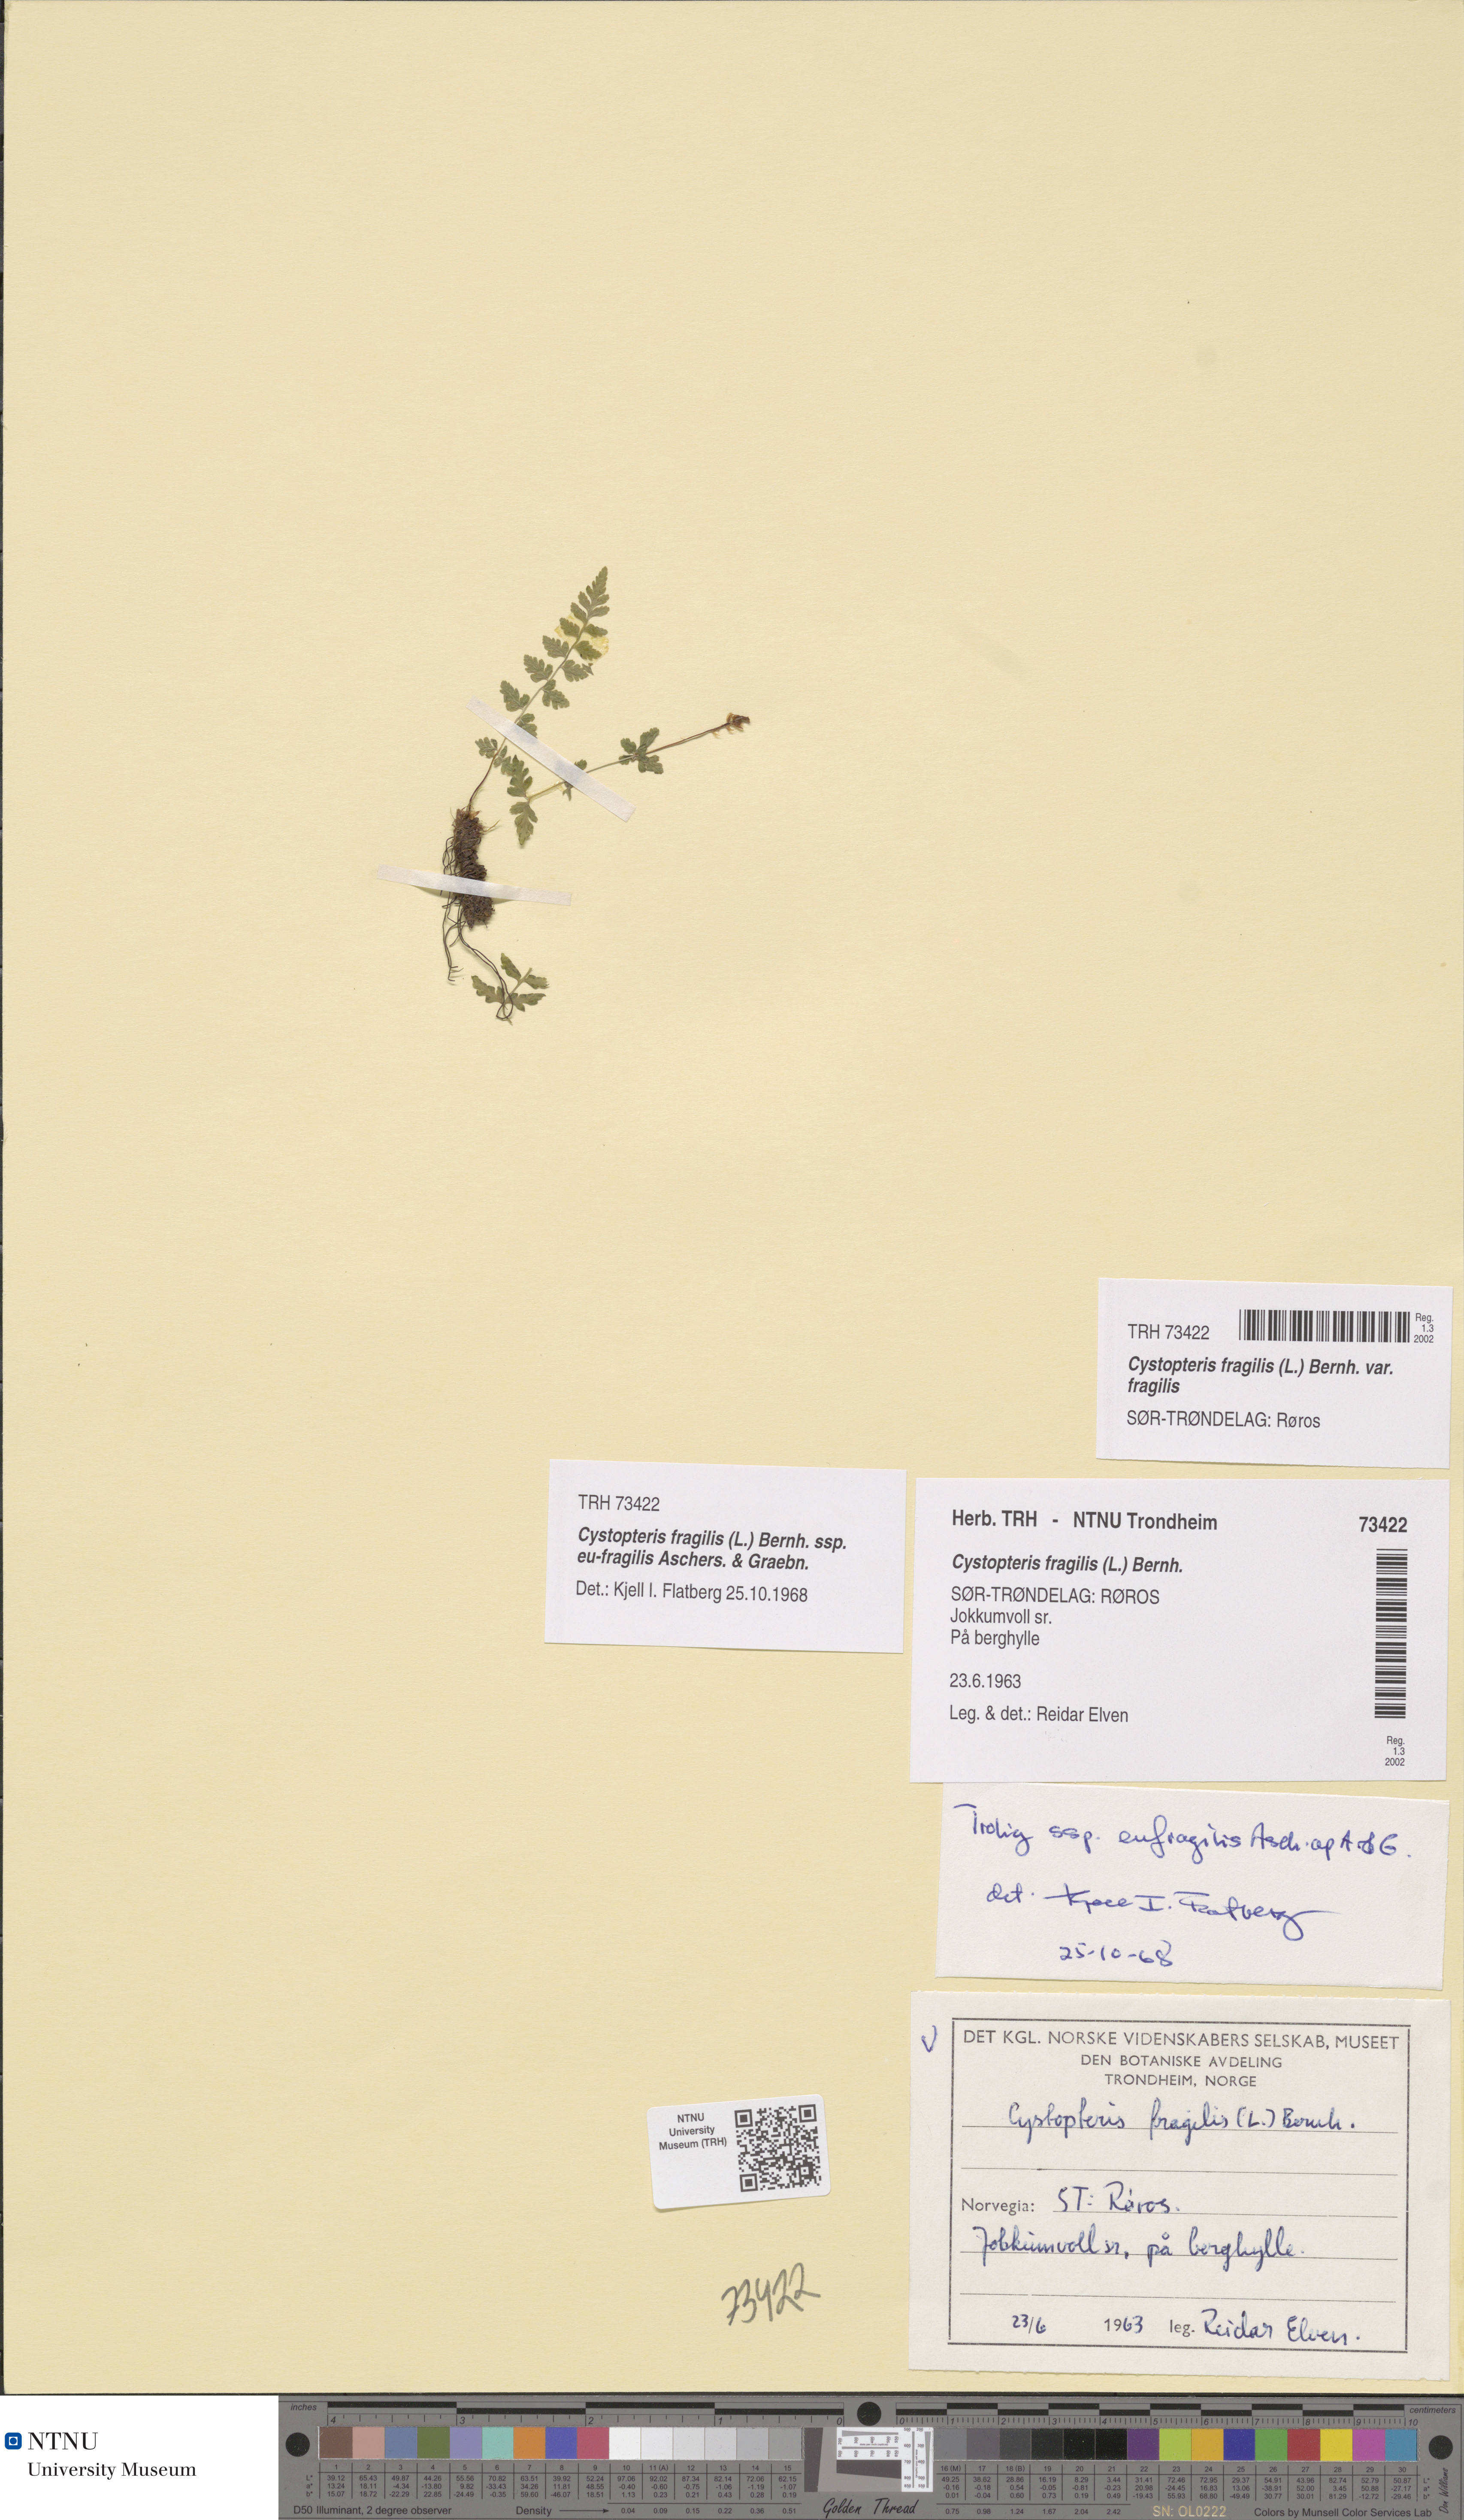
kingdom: Plantae
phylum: Tracheophyta
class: Polypodiopsida
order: Polypodiales
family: Cystopteridaceae
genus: Cystopteris
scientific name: Cystopteris fragilis
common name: Brittle bladder fern
